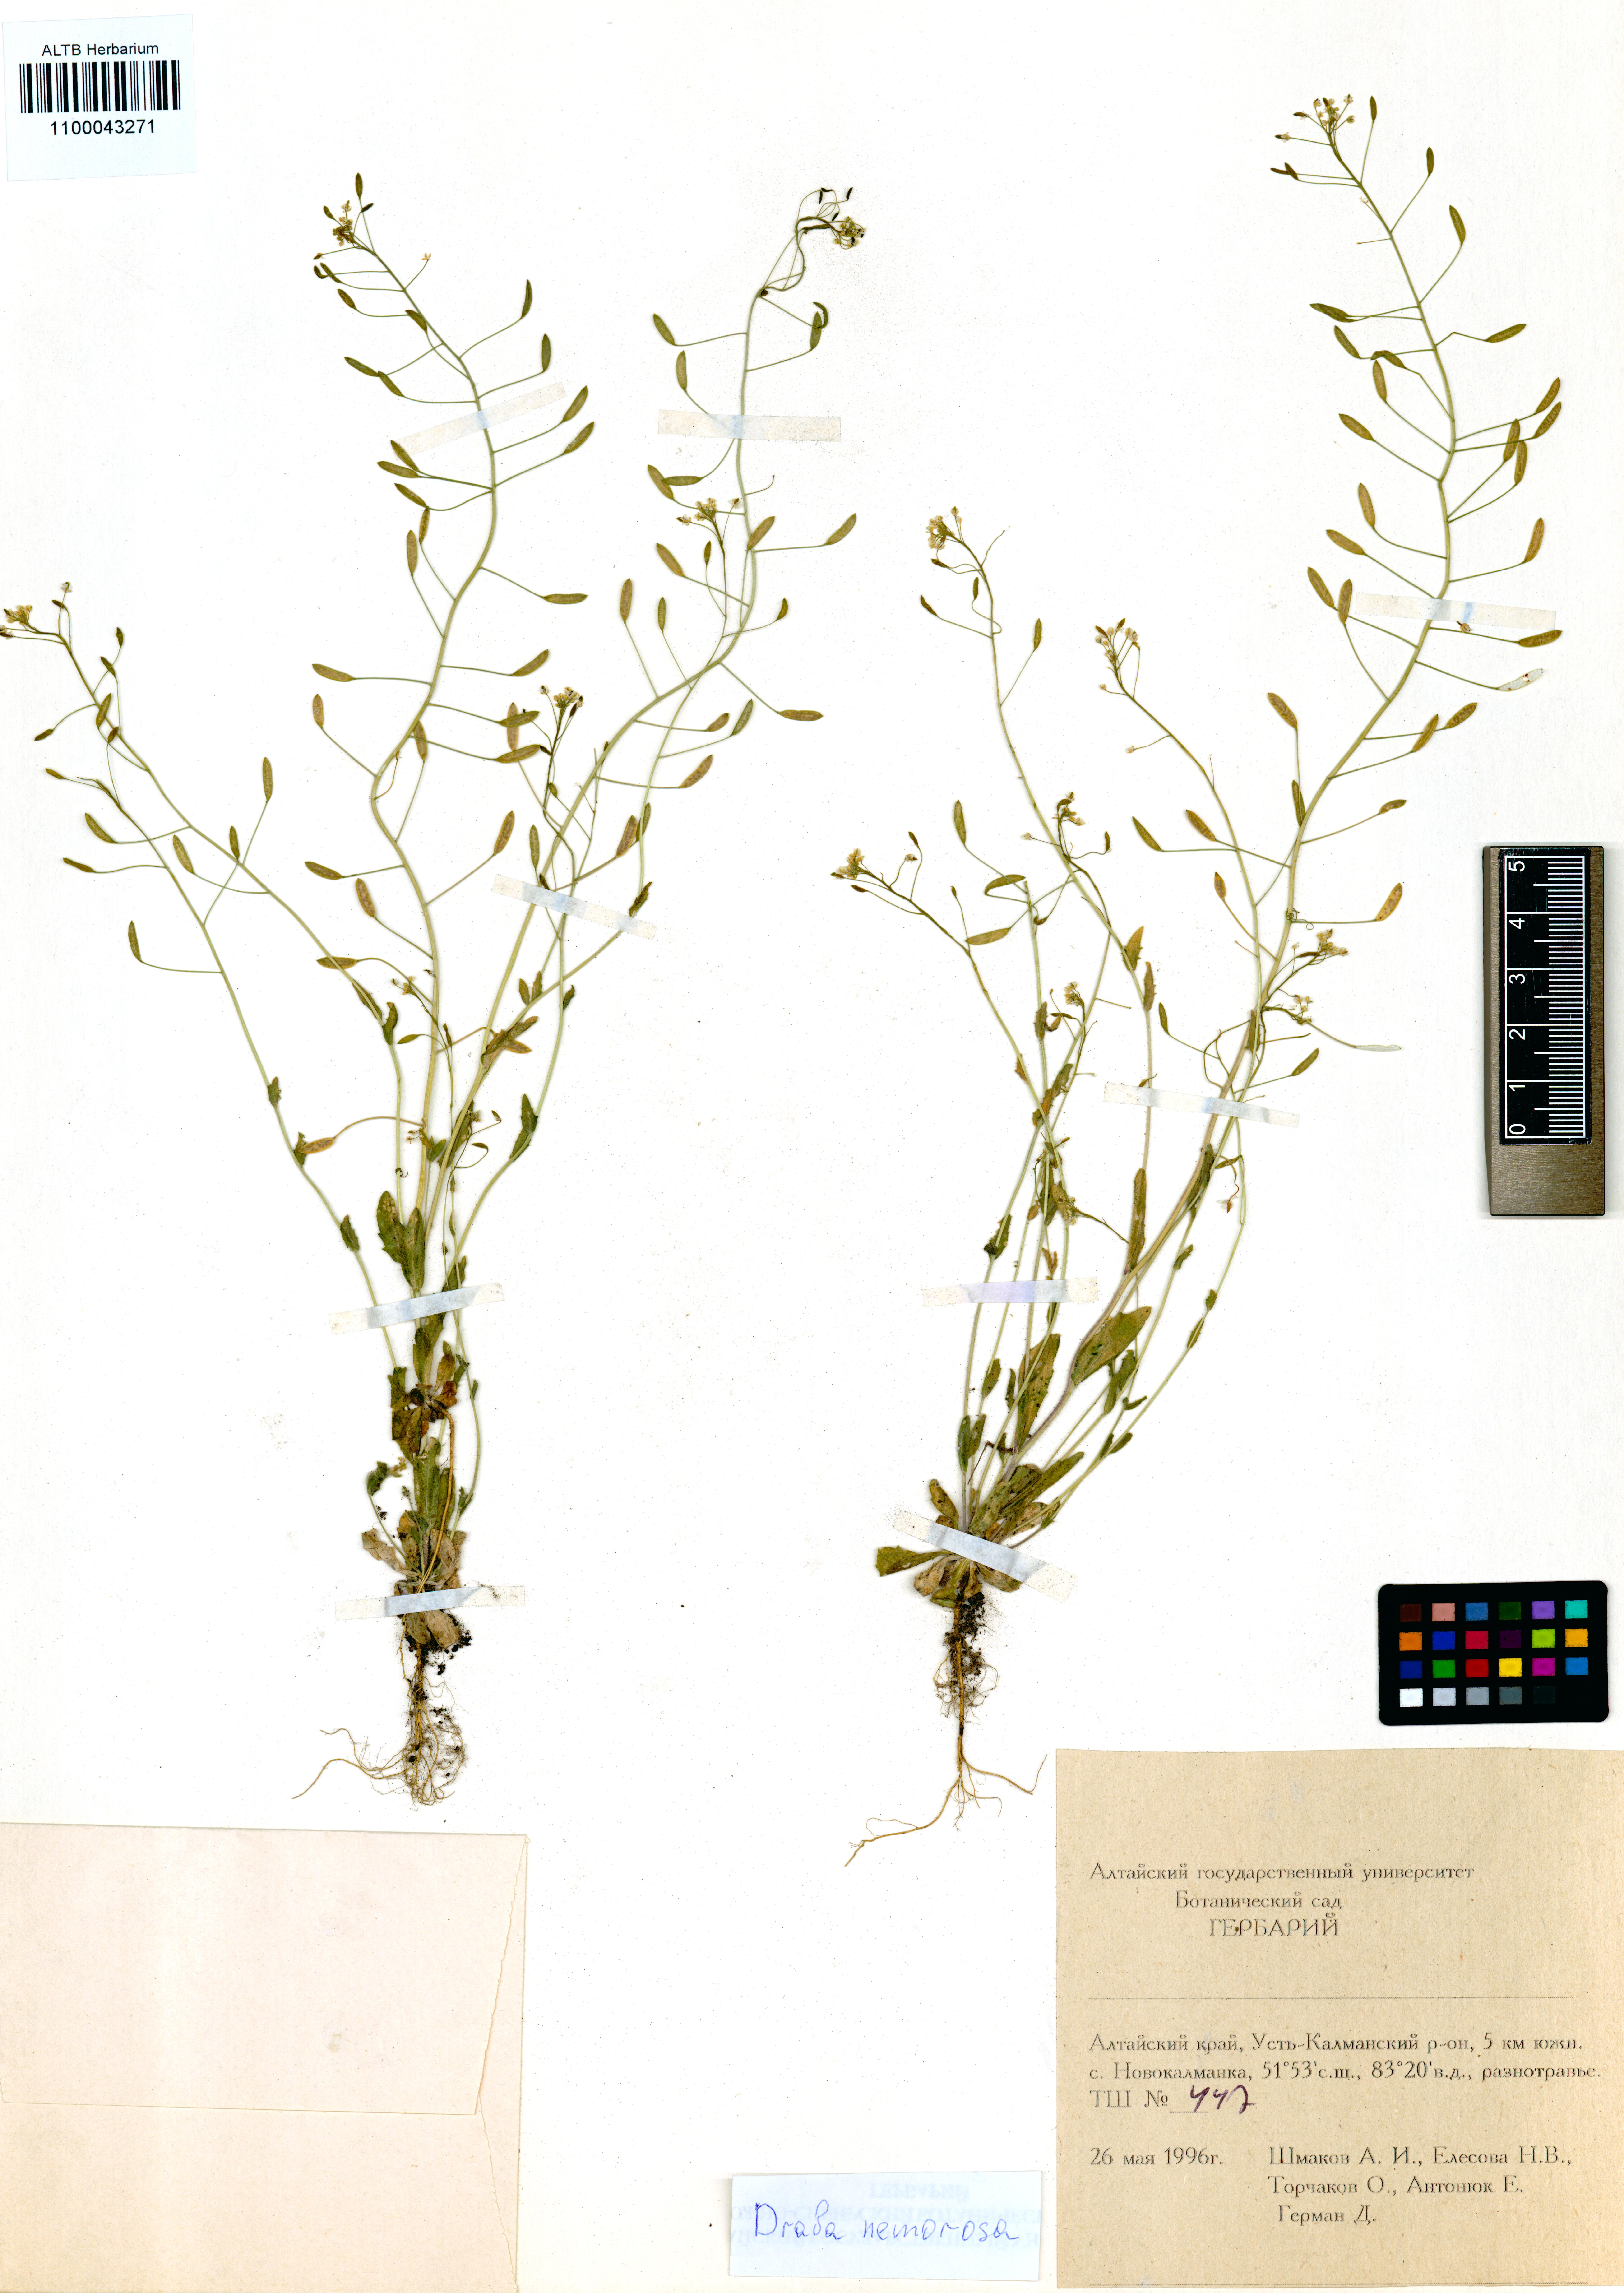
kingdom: Plantae
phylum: Tracheophyta
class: Magnoliopsida
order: Brassicales
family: Brassicaceae
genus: Draba
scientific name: Draba nemorosa
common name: Wood whitlow-grass
